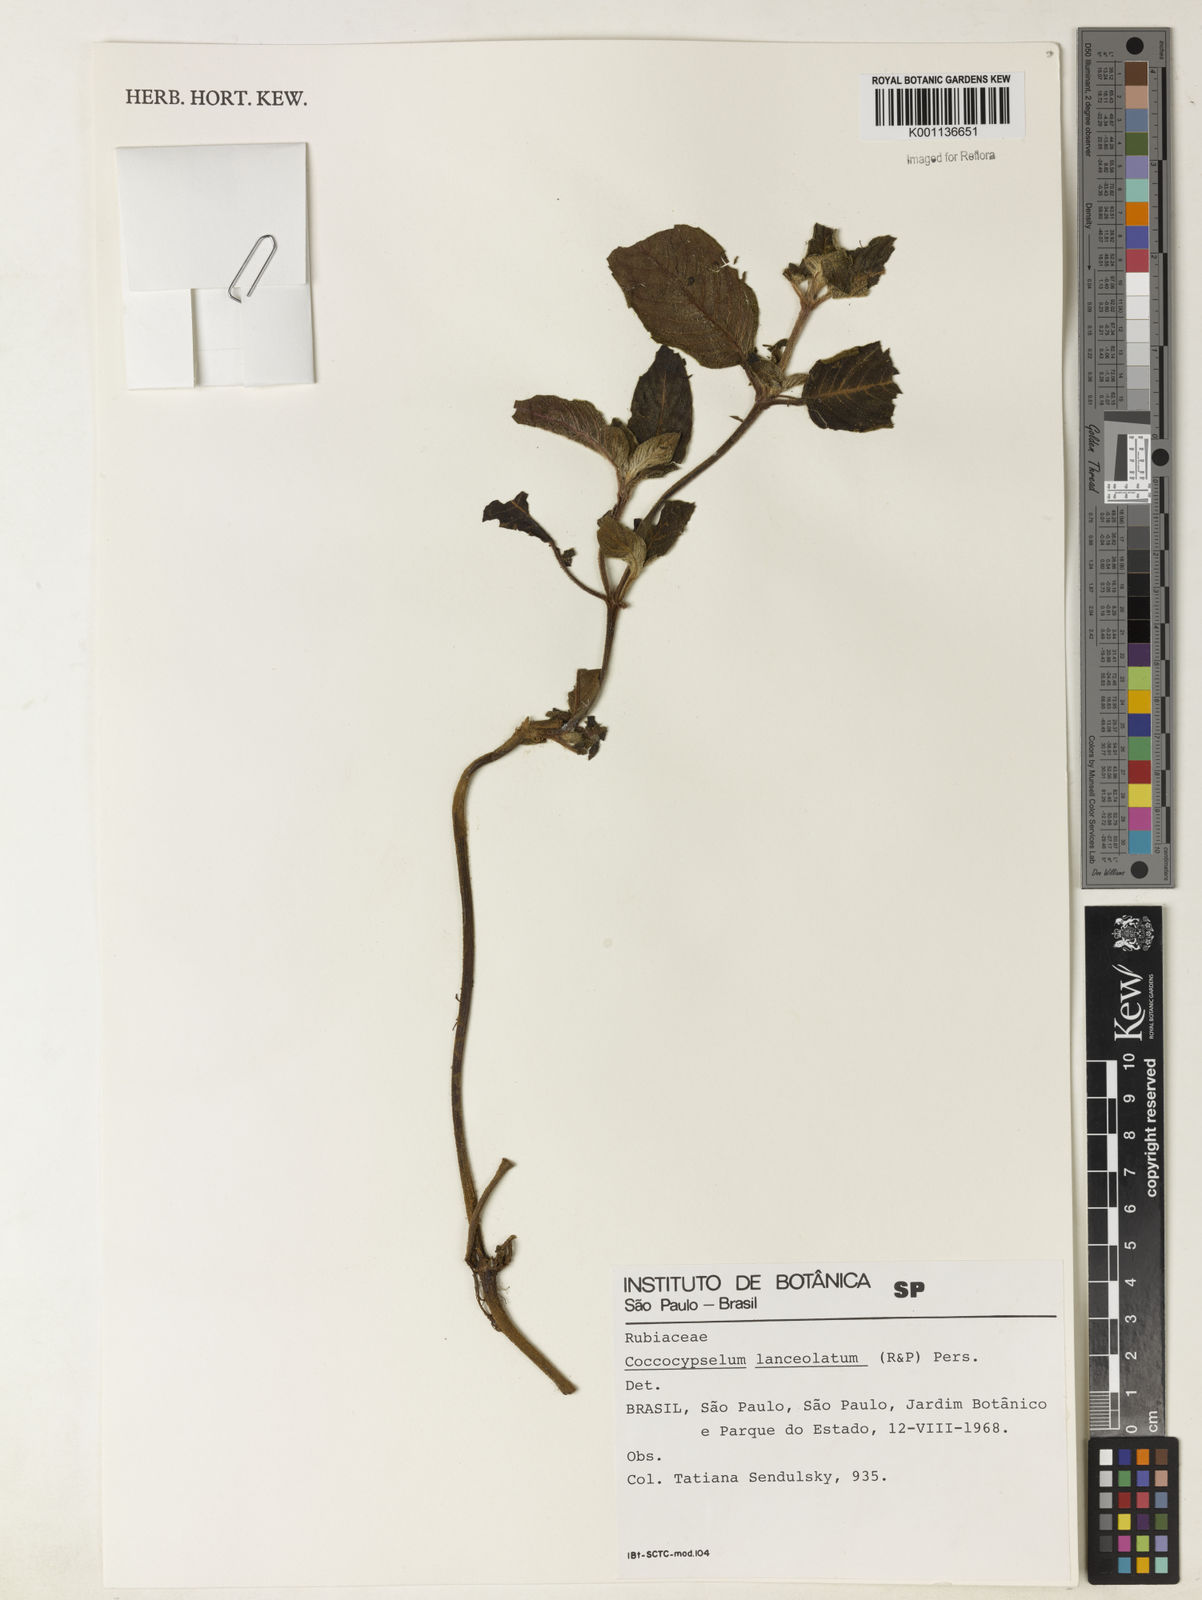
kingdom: Plantae
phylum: Tracheophyta
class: Magnoliopsida
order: Gentianales
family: Rubiaceae
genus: Coccocypselum
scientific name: Coccocypselum lanceolatum
